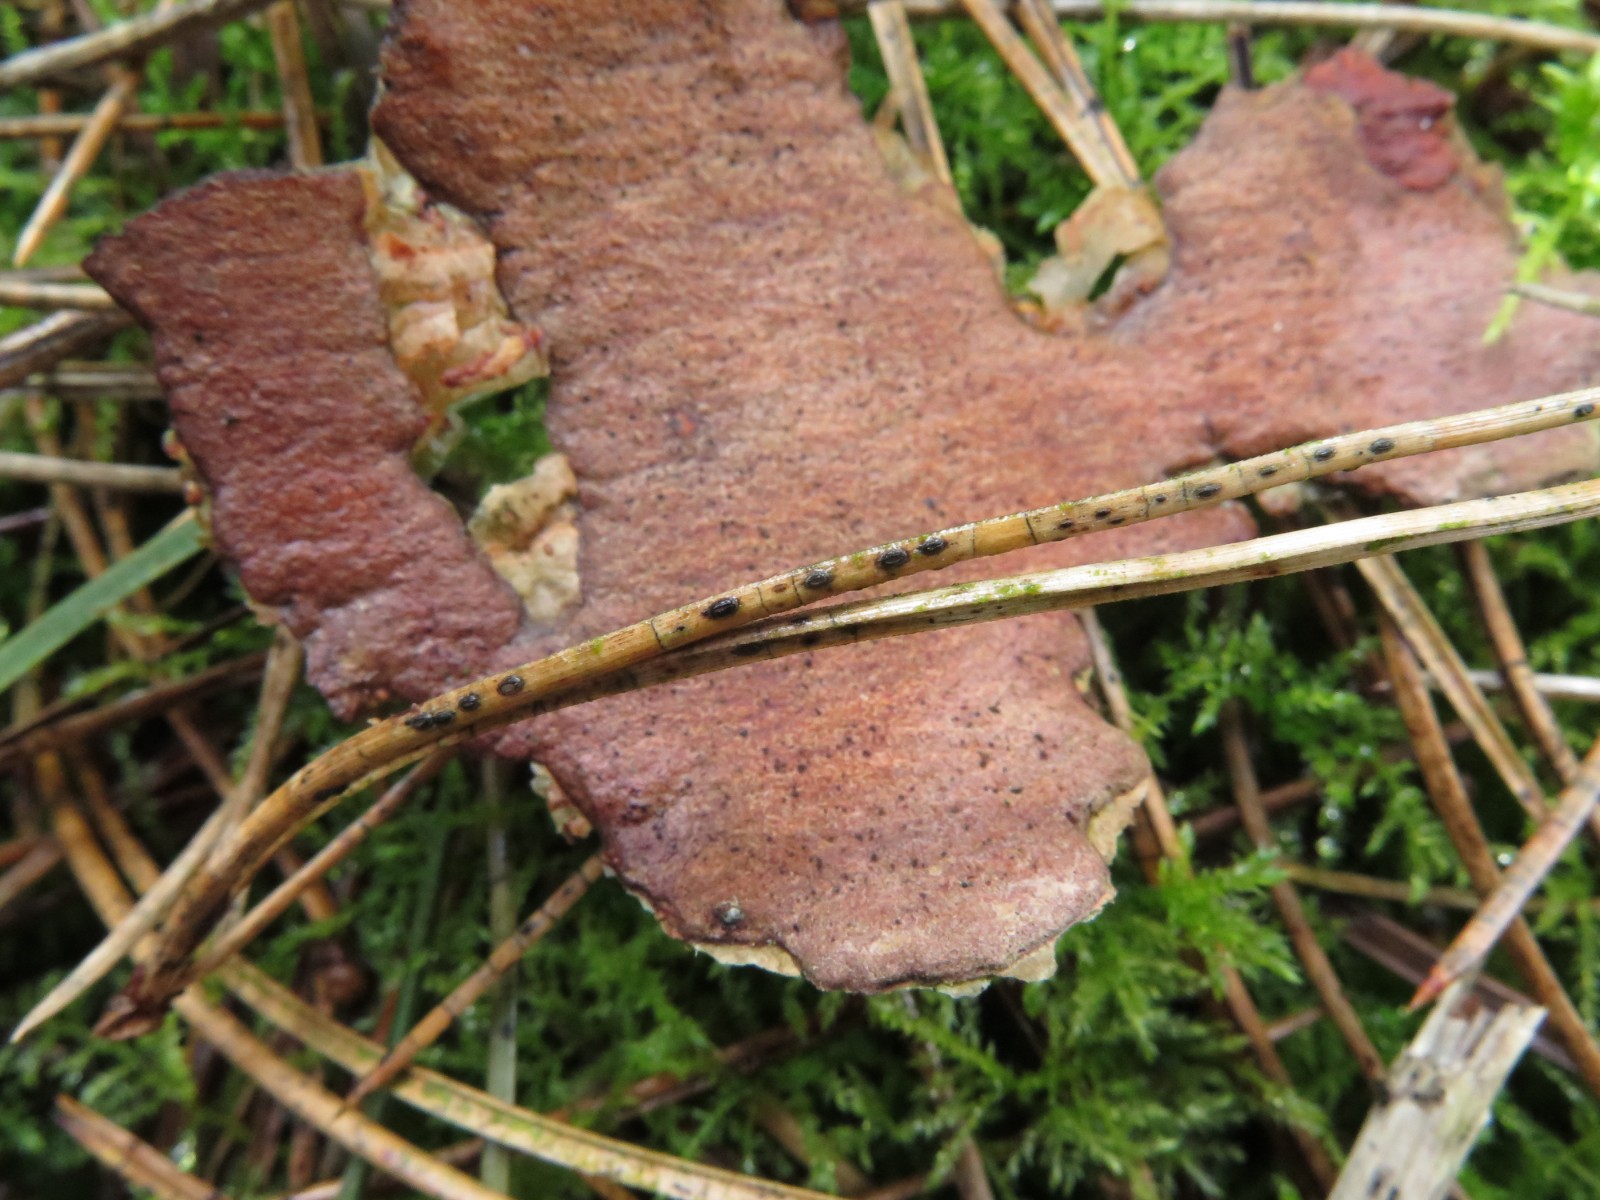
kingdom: Fungi
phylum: Ascomycota
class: Leotiomycetes
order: Rhytismatales
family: Rhytismataceae
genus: Lophodermium
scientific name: Lophodermium pinastri
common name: fyrre-fureplet
